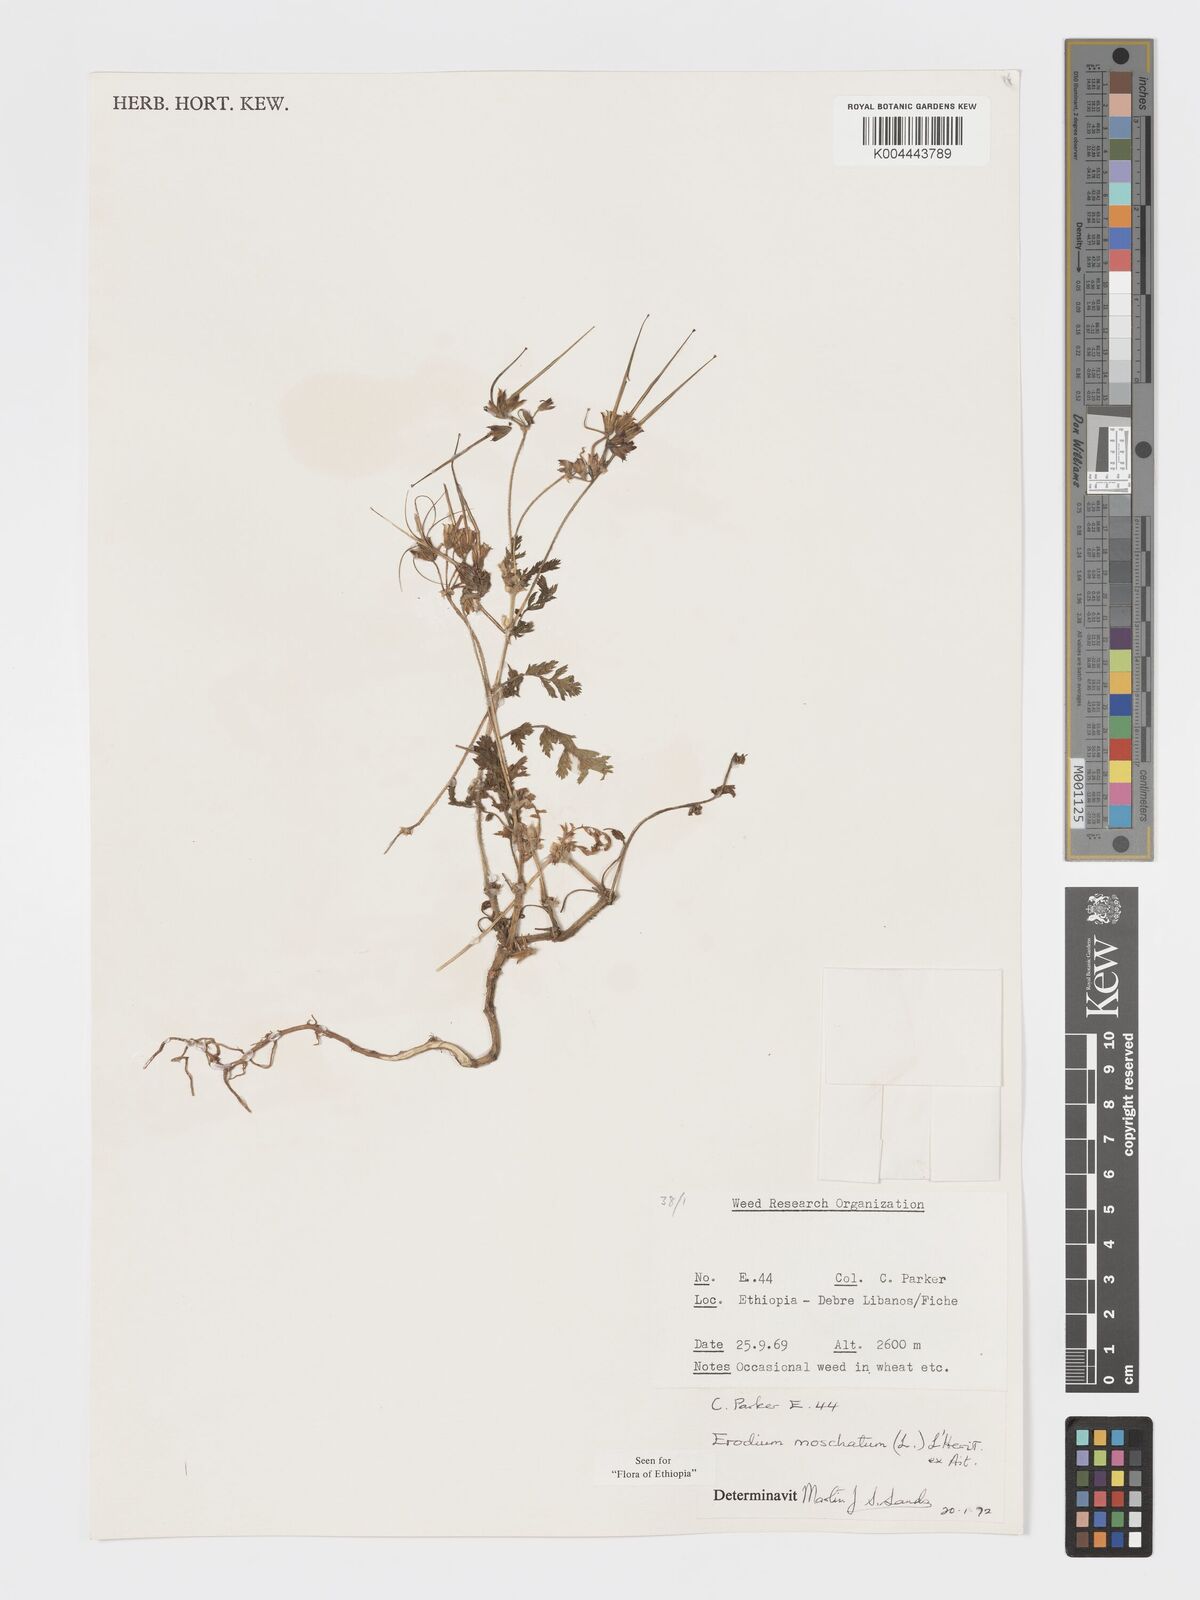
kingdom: Plantae
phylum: Tracheophyta
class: Magnoliopsida
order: Geraniales
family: Geraniaceae
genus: Erodium
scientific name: Erodium moschatum
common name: Musk stork's-bill
